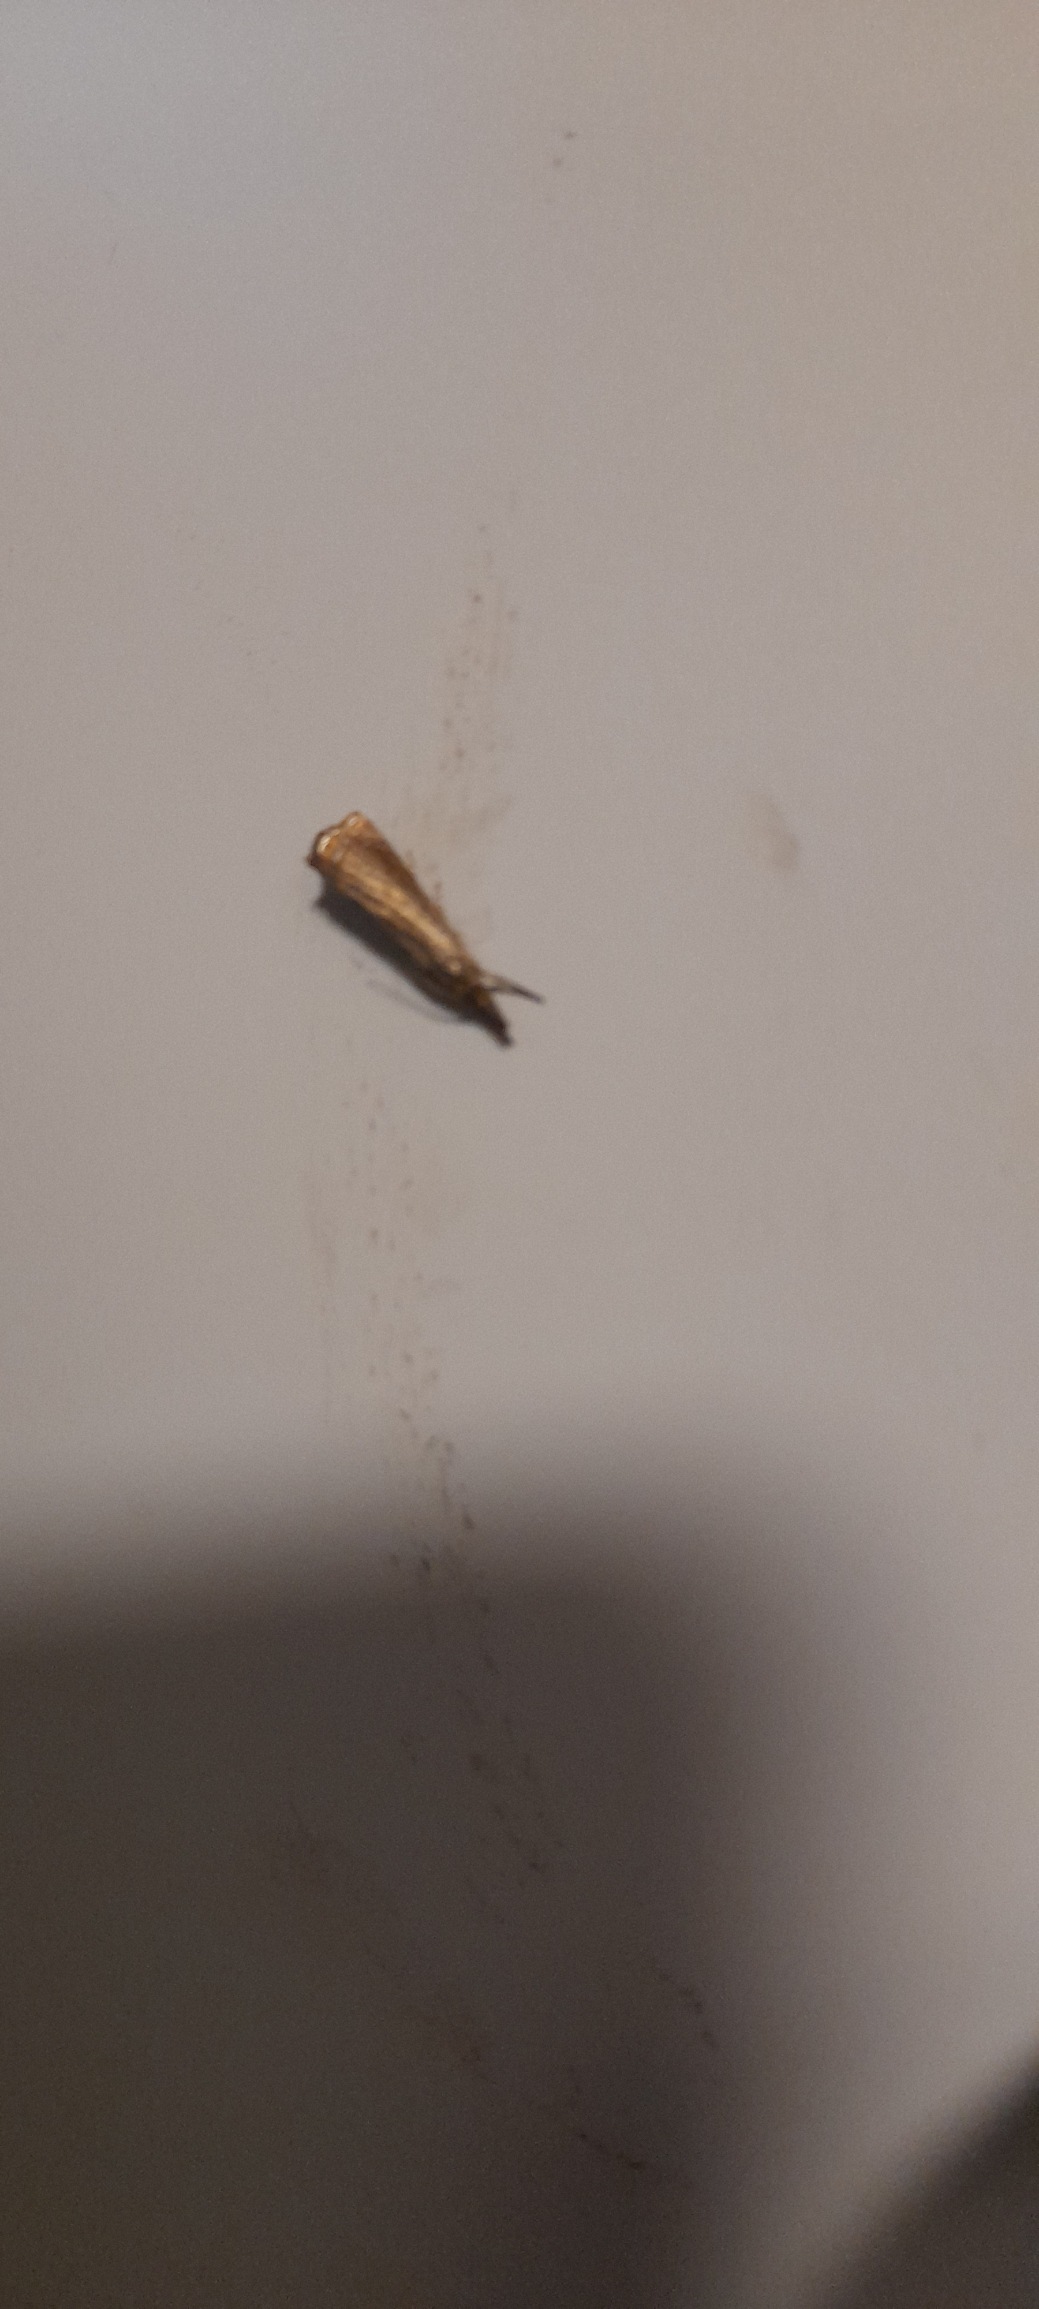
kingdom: Animalia
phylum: Arthropoda
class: Insecta
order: Lepidoptera
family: Crambidae
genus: Chrysoteuchia
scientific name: Chrysoteuchia culmella
